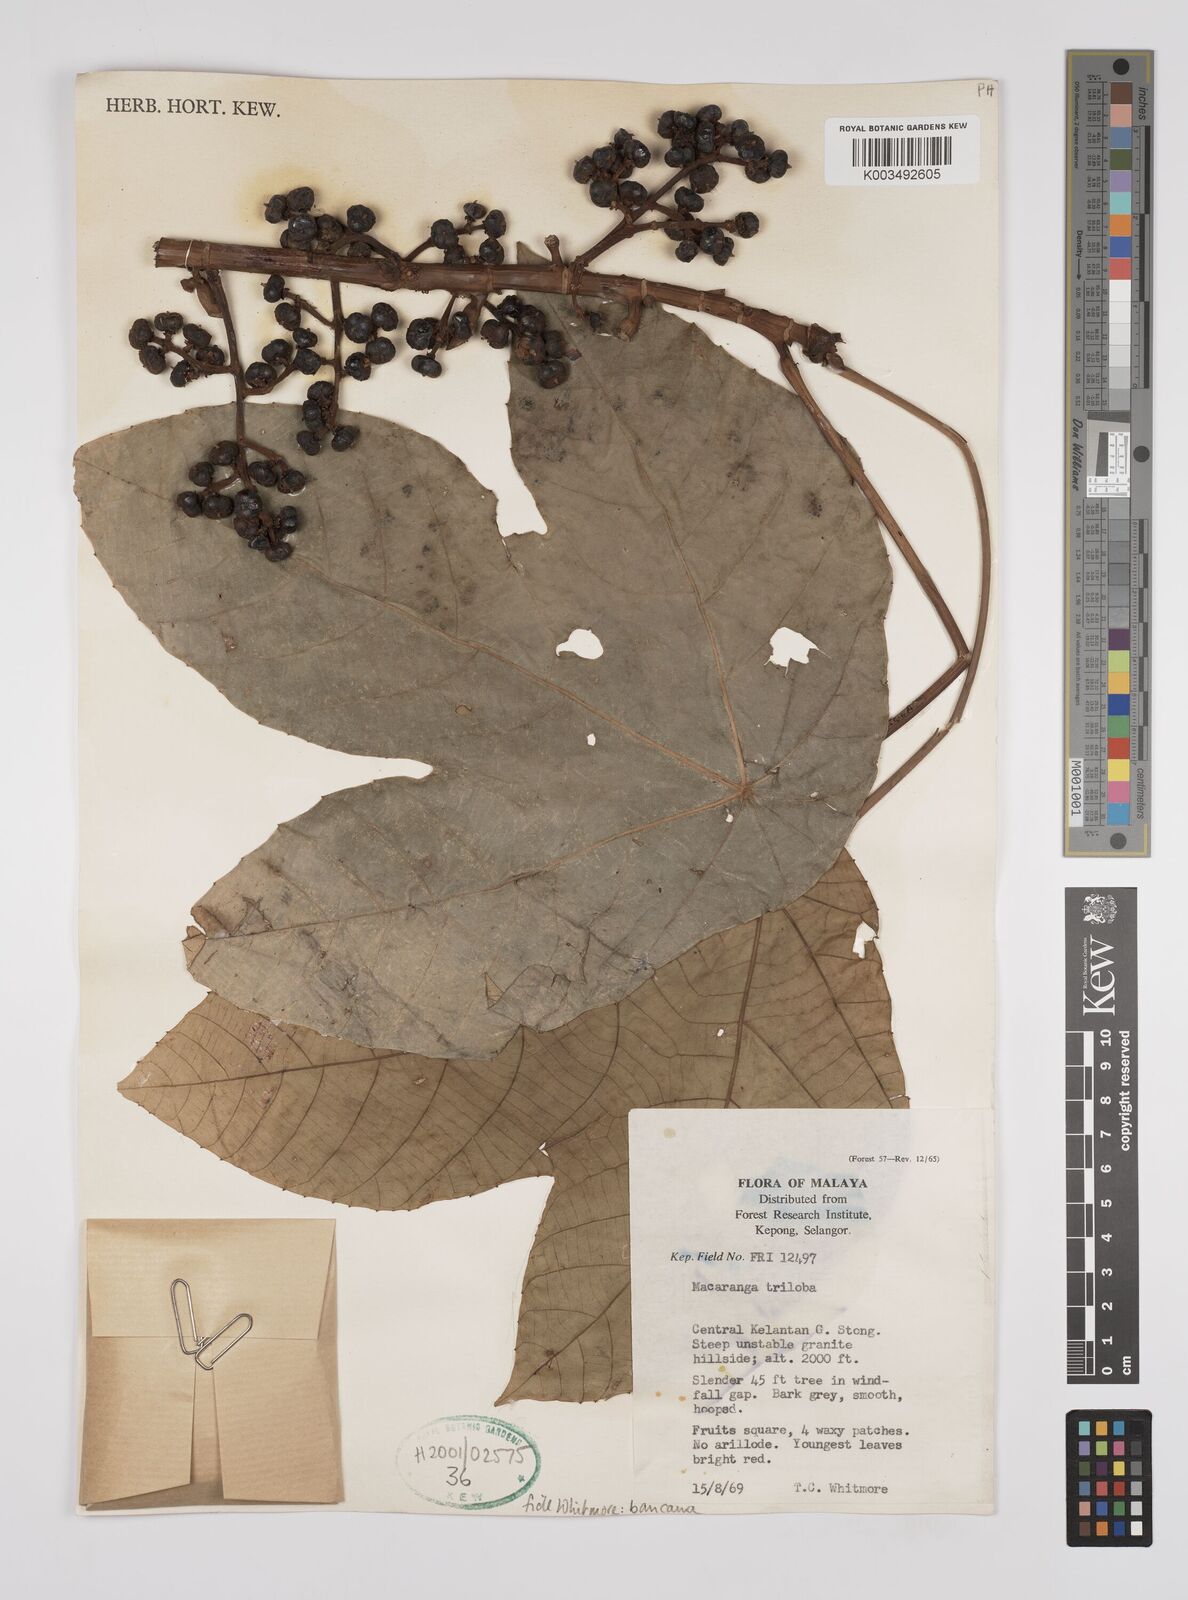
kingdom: Plantae
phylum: Tracheophyta
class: Magnoliopsida
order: Malpighiales
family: Euphorbiaceae
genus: Macaranga
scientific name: Macaranga bancana
